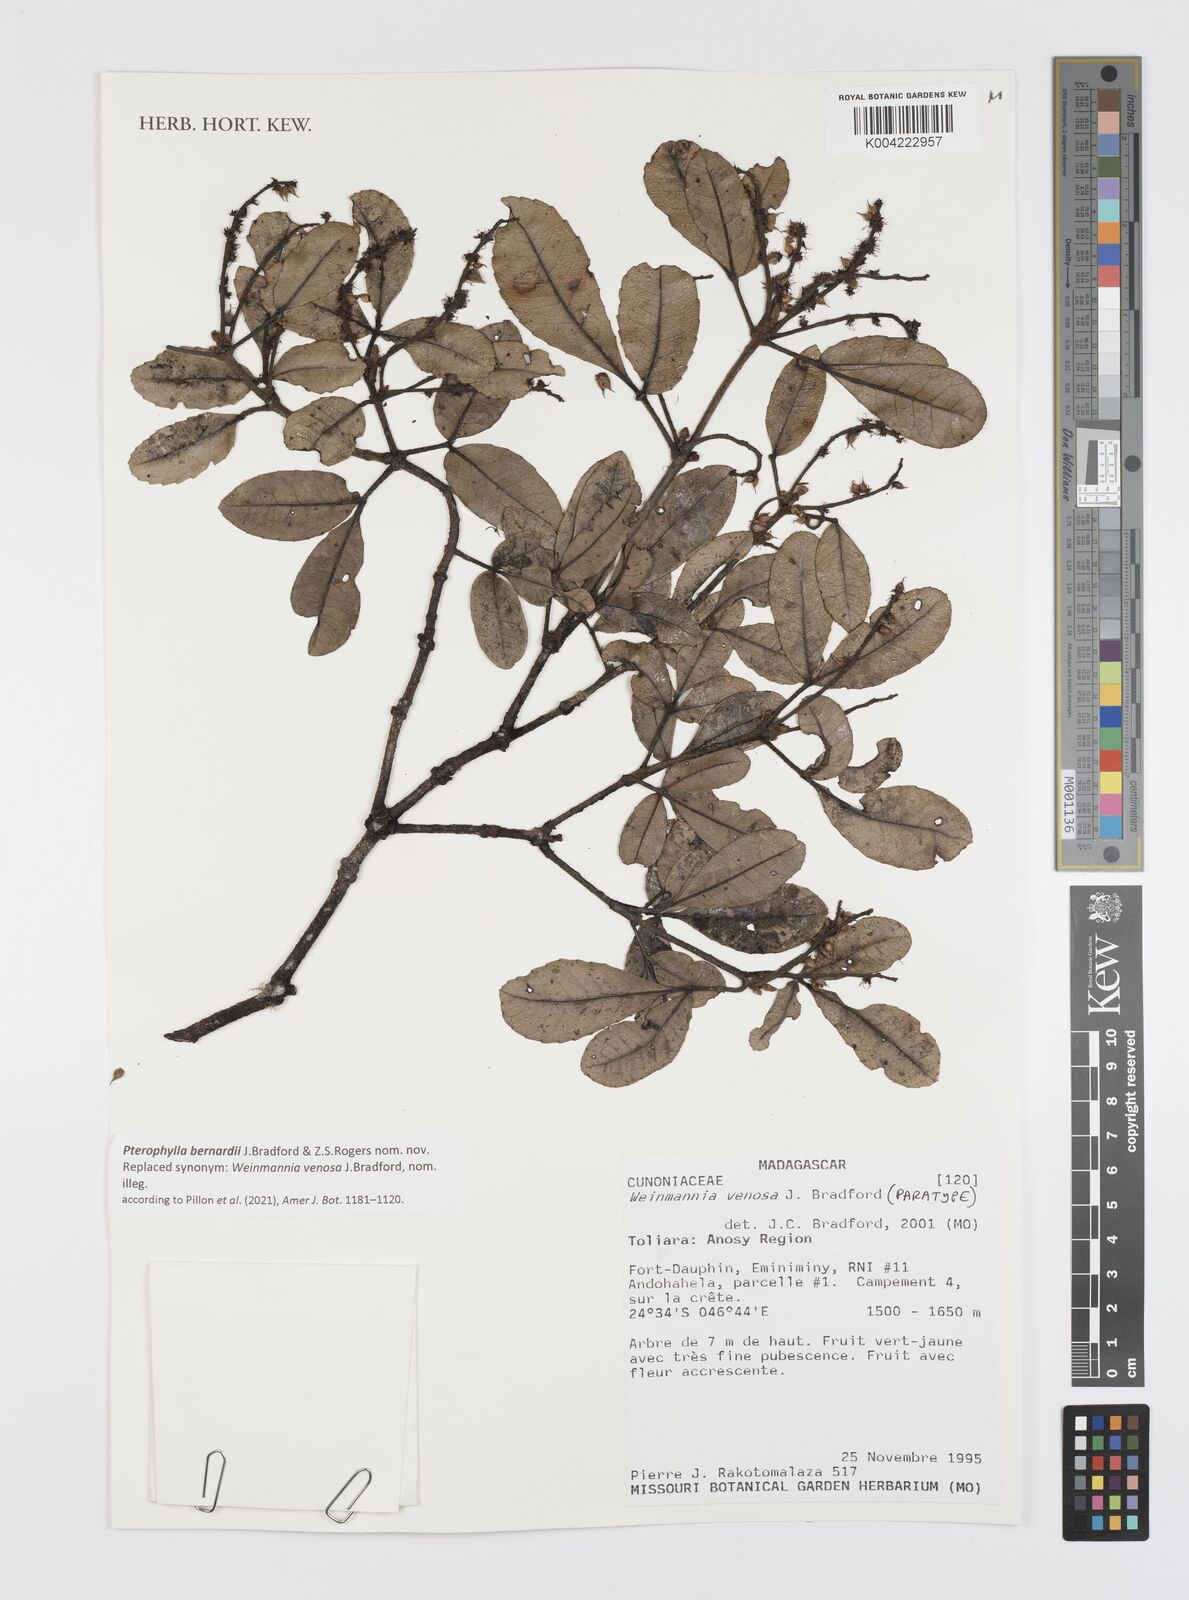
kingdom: Plantae
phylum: Tracheophyta
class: Magnoliopsida
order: Oxalidales
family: Cunoniaceae
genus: Weinmannia
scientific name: Weinmannia
